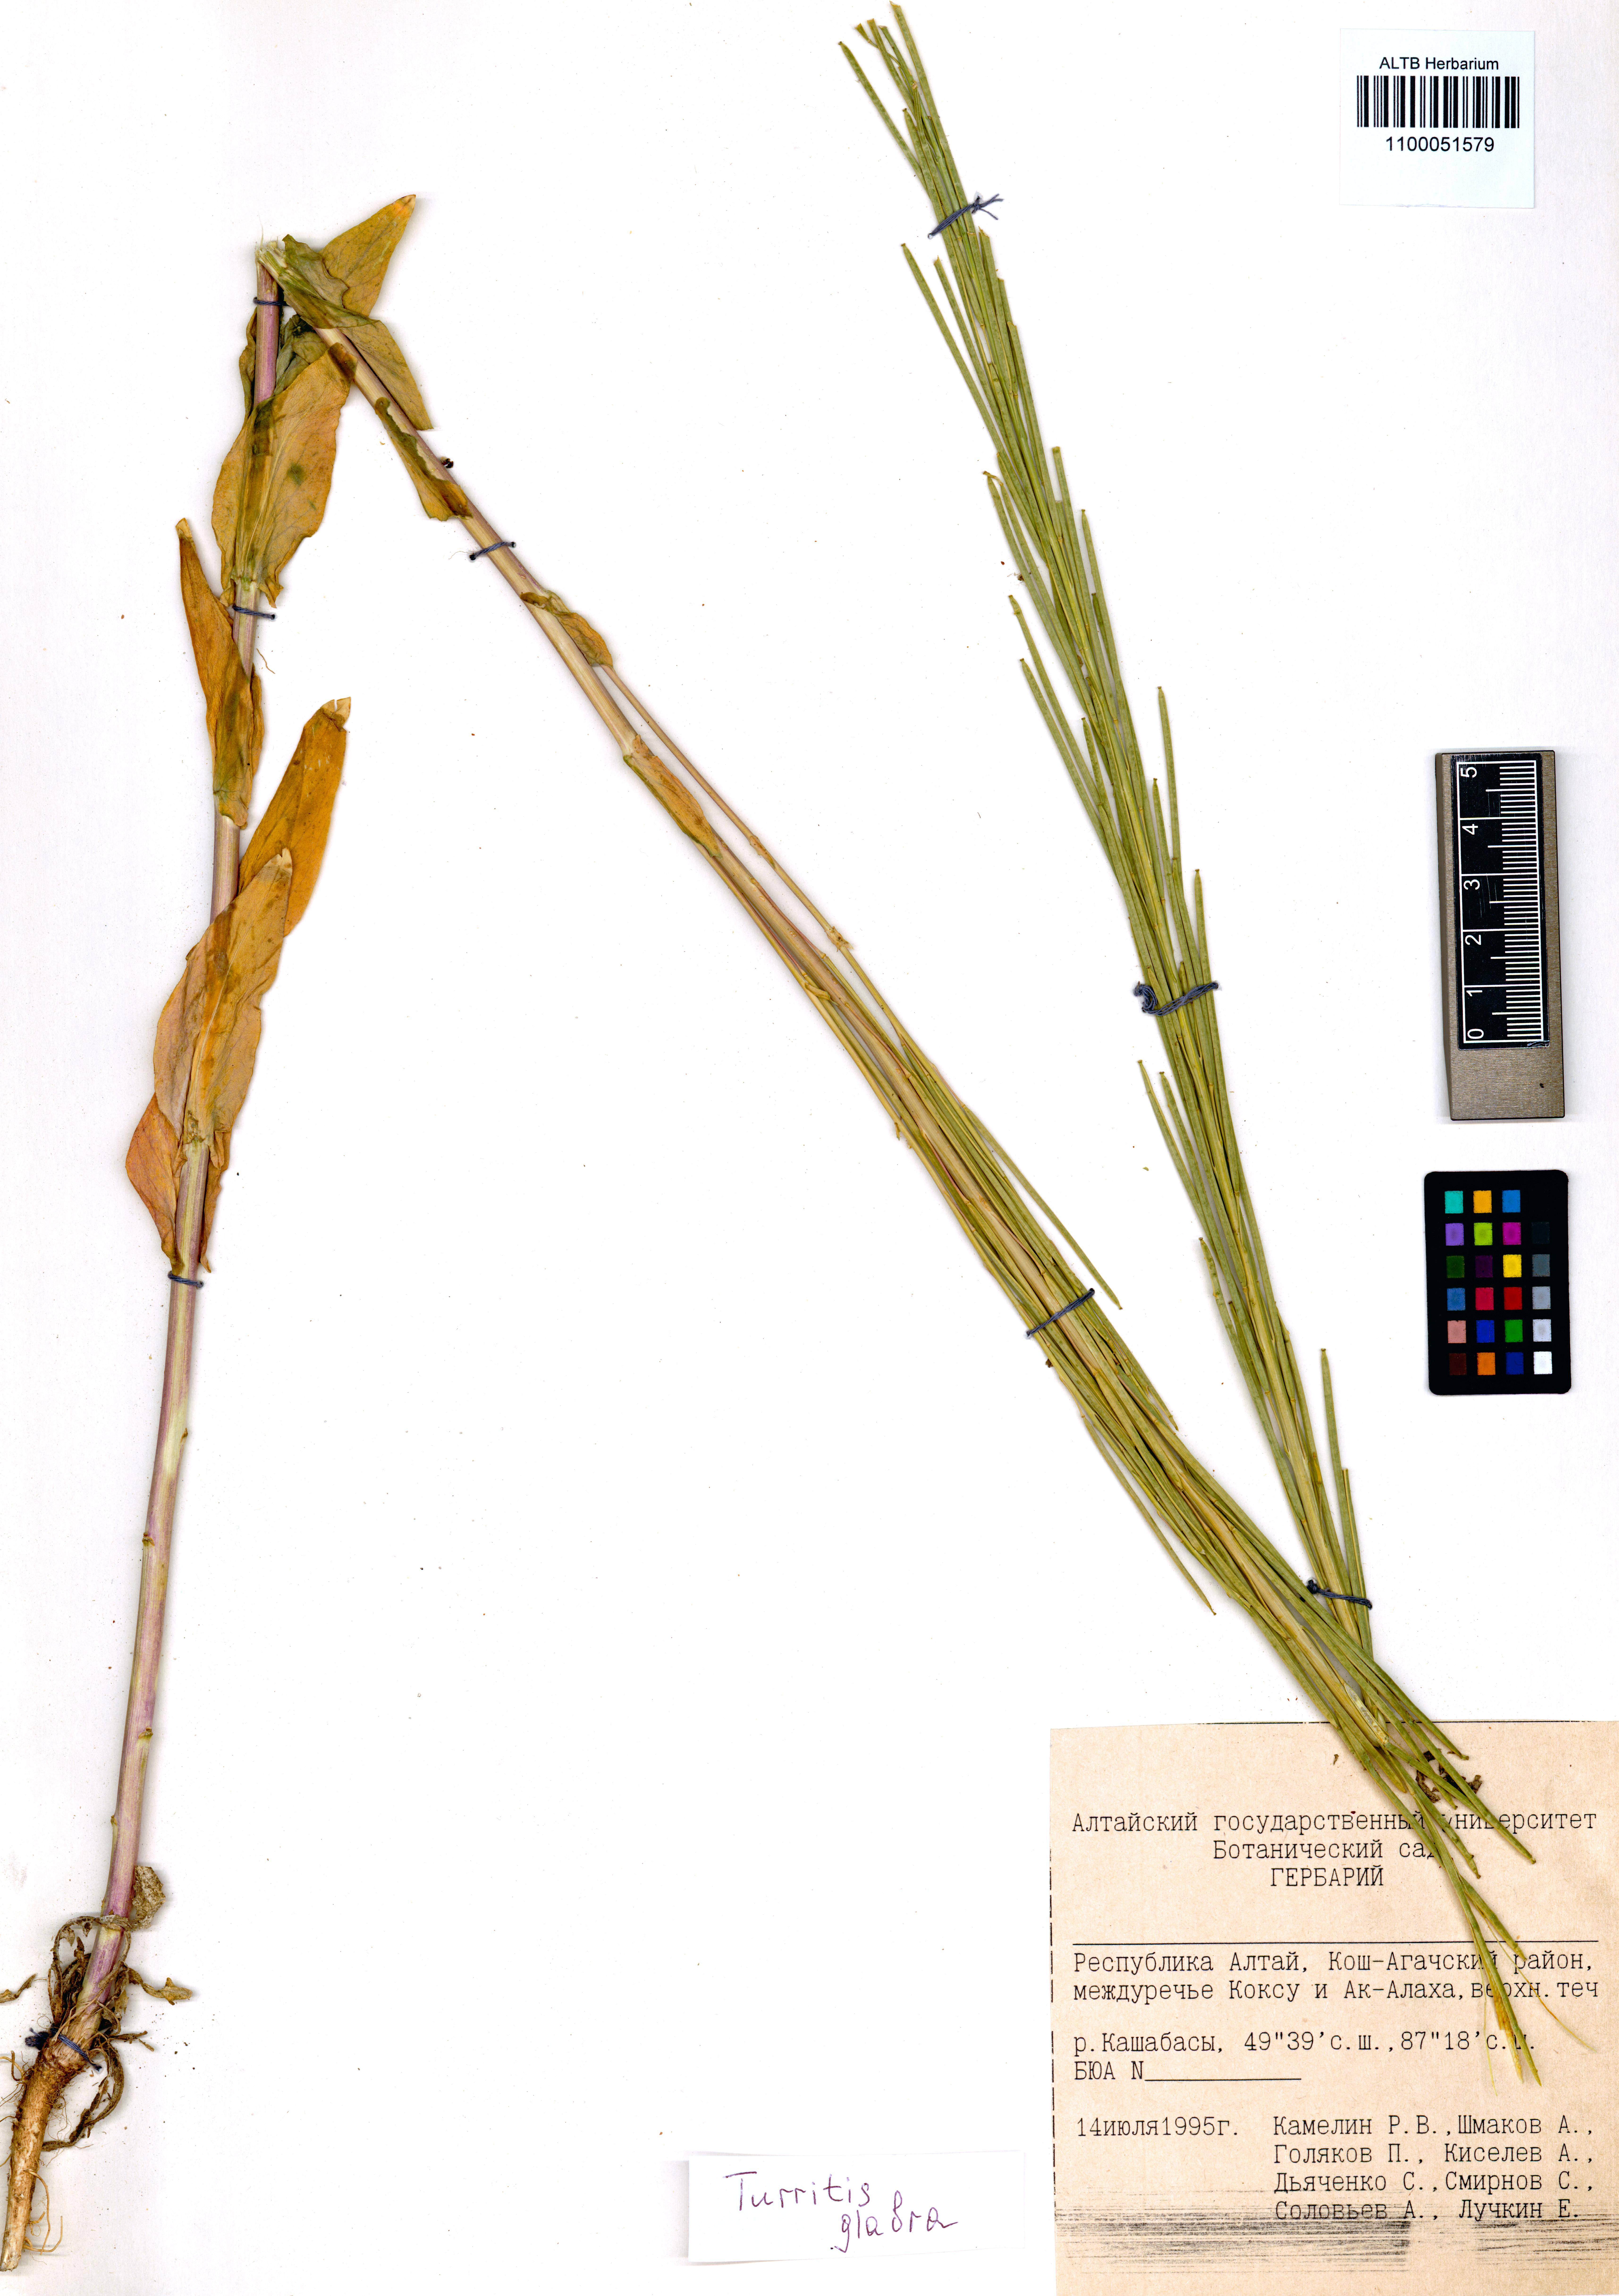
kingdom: Plantae
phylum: Tracheophyta
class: Magnoliopsida
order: Brassicales
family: Brassicaceae
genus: Turritis
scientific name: Turritis glabra
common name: Tower rockcress
